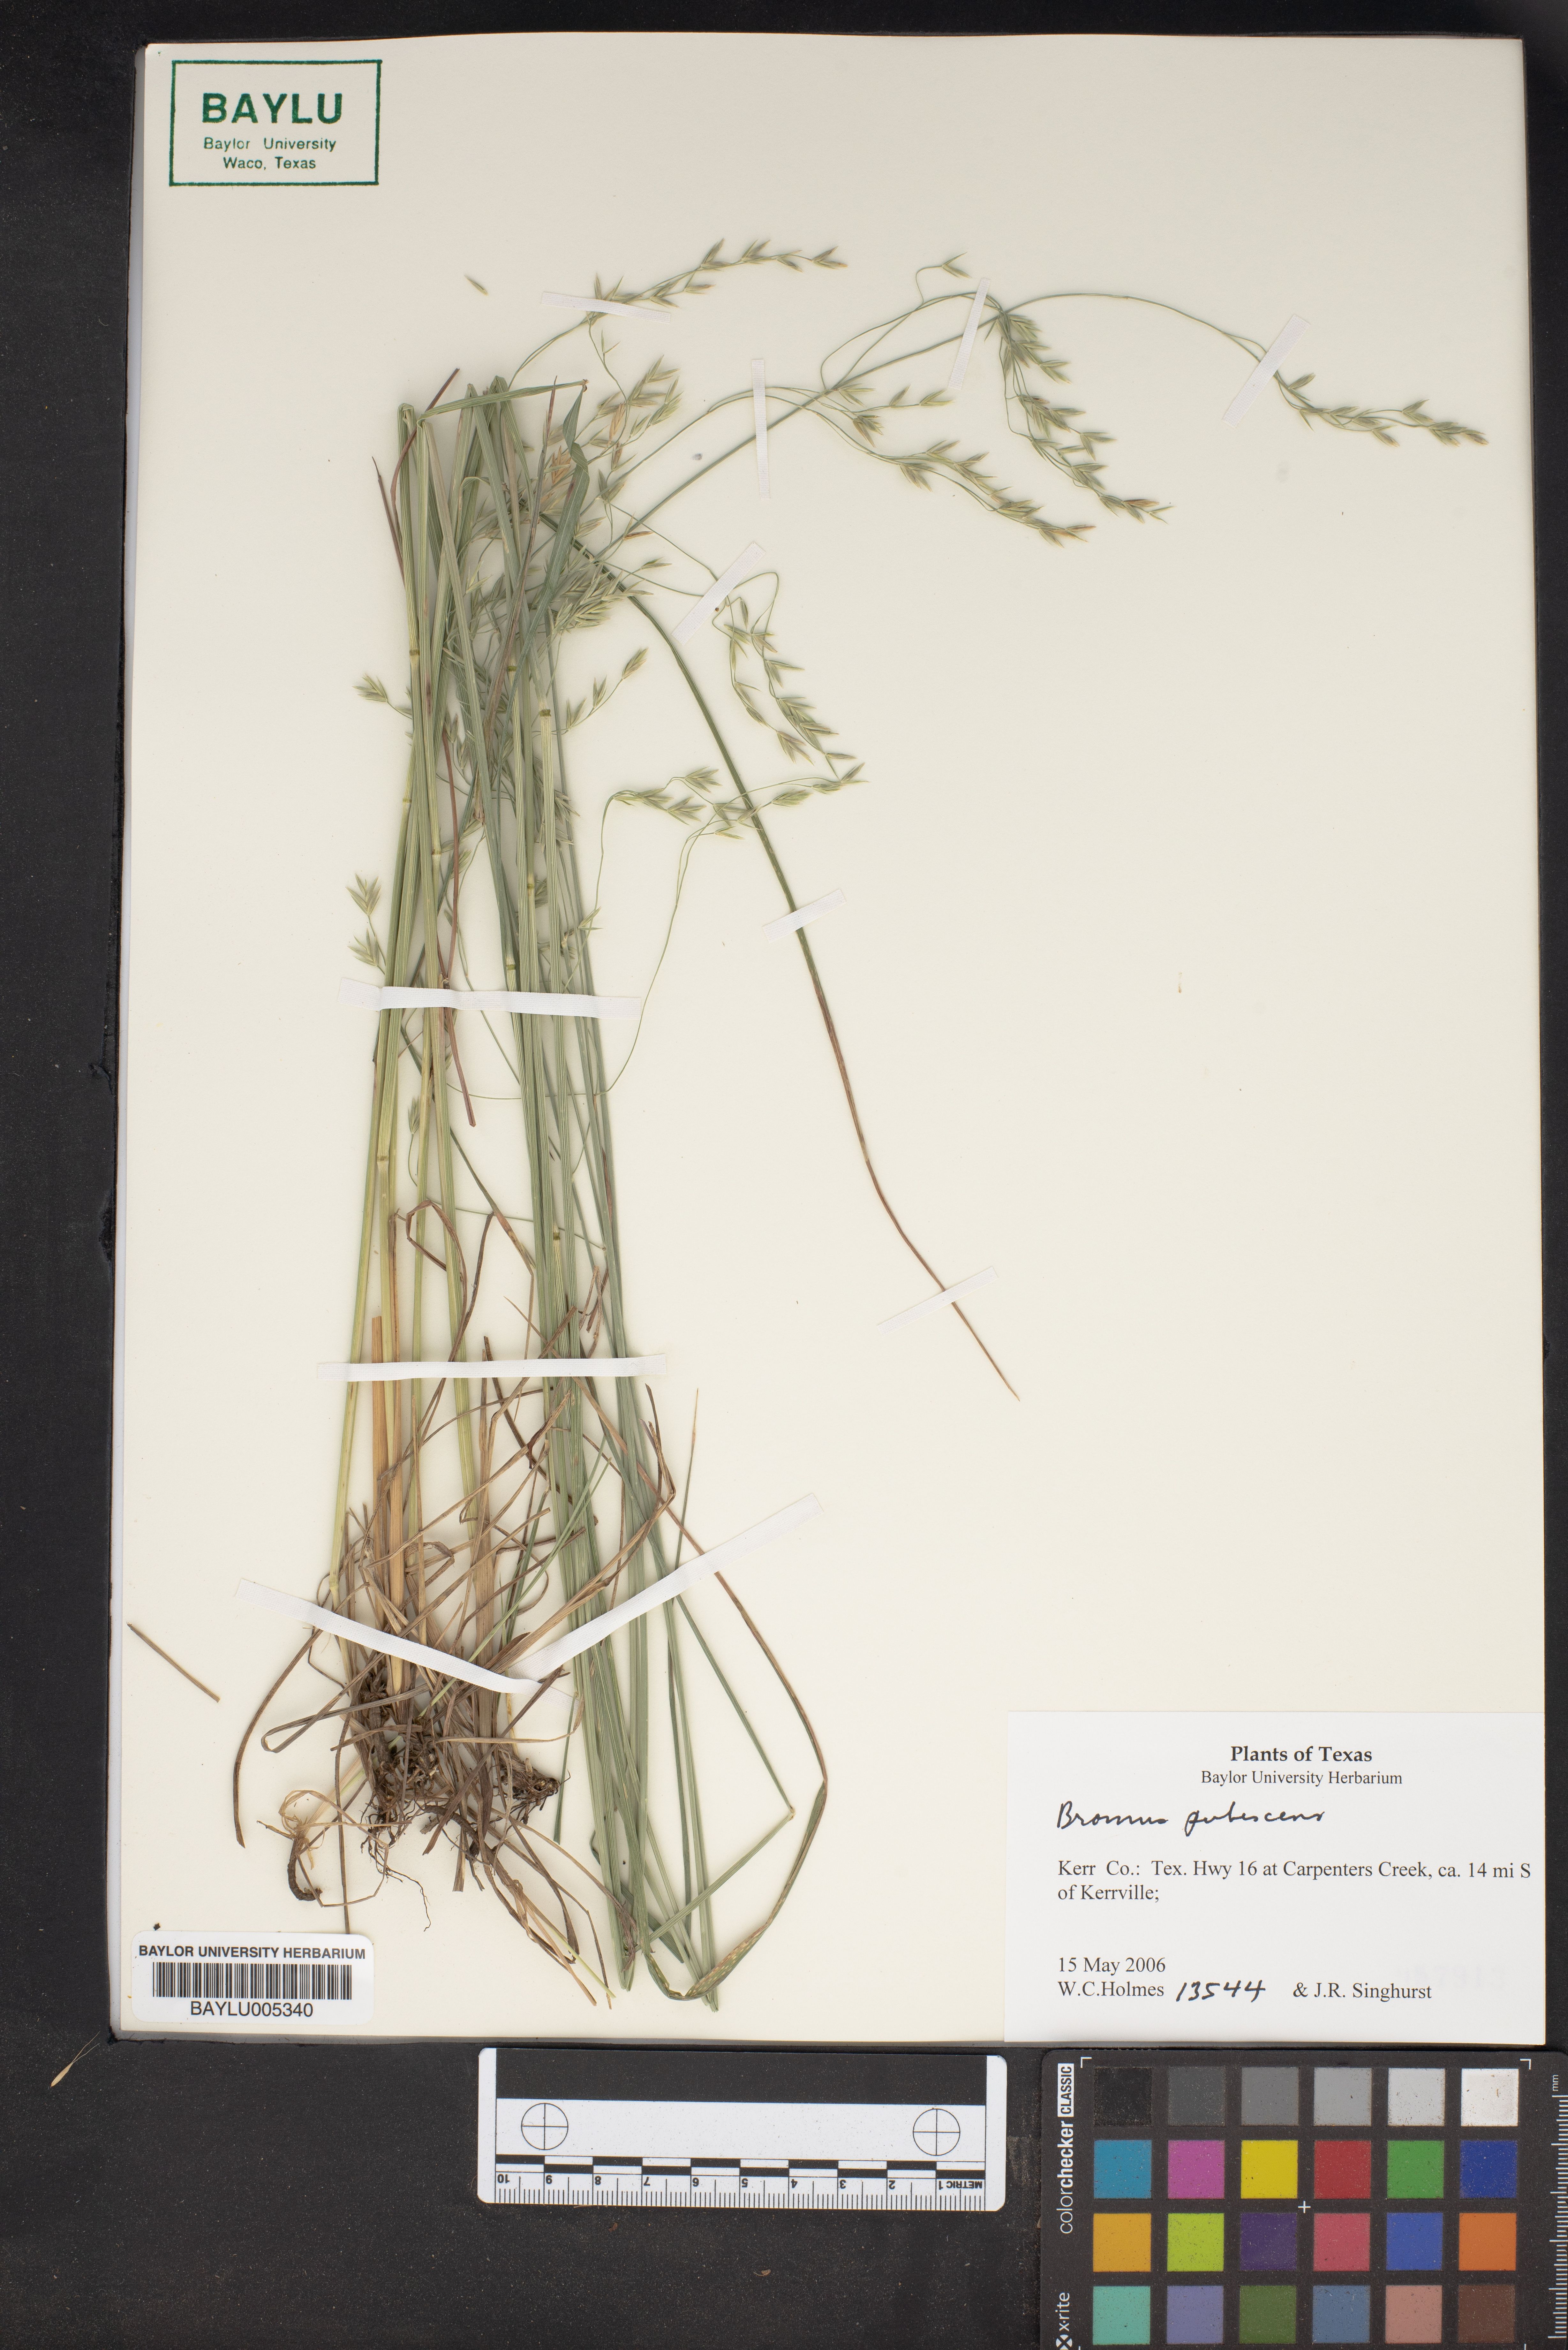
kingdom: Plantae
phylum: Tracheophyta
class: Liliopsida
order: Poales
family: Poaceae
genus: Bromus
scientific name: Bromus pubescens
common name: Hairy wood brome grass
